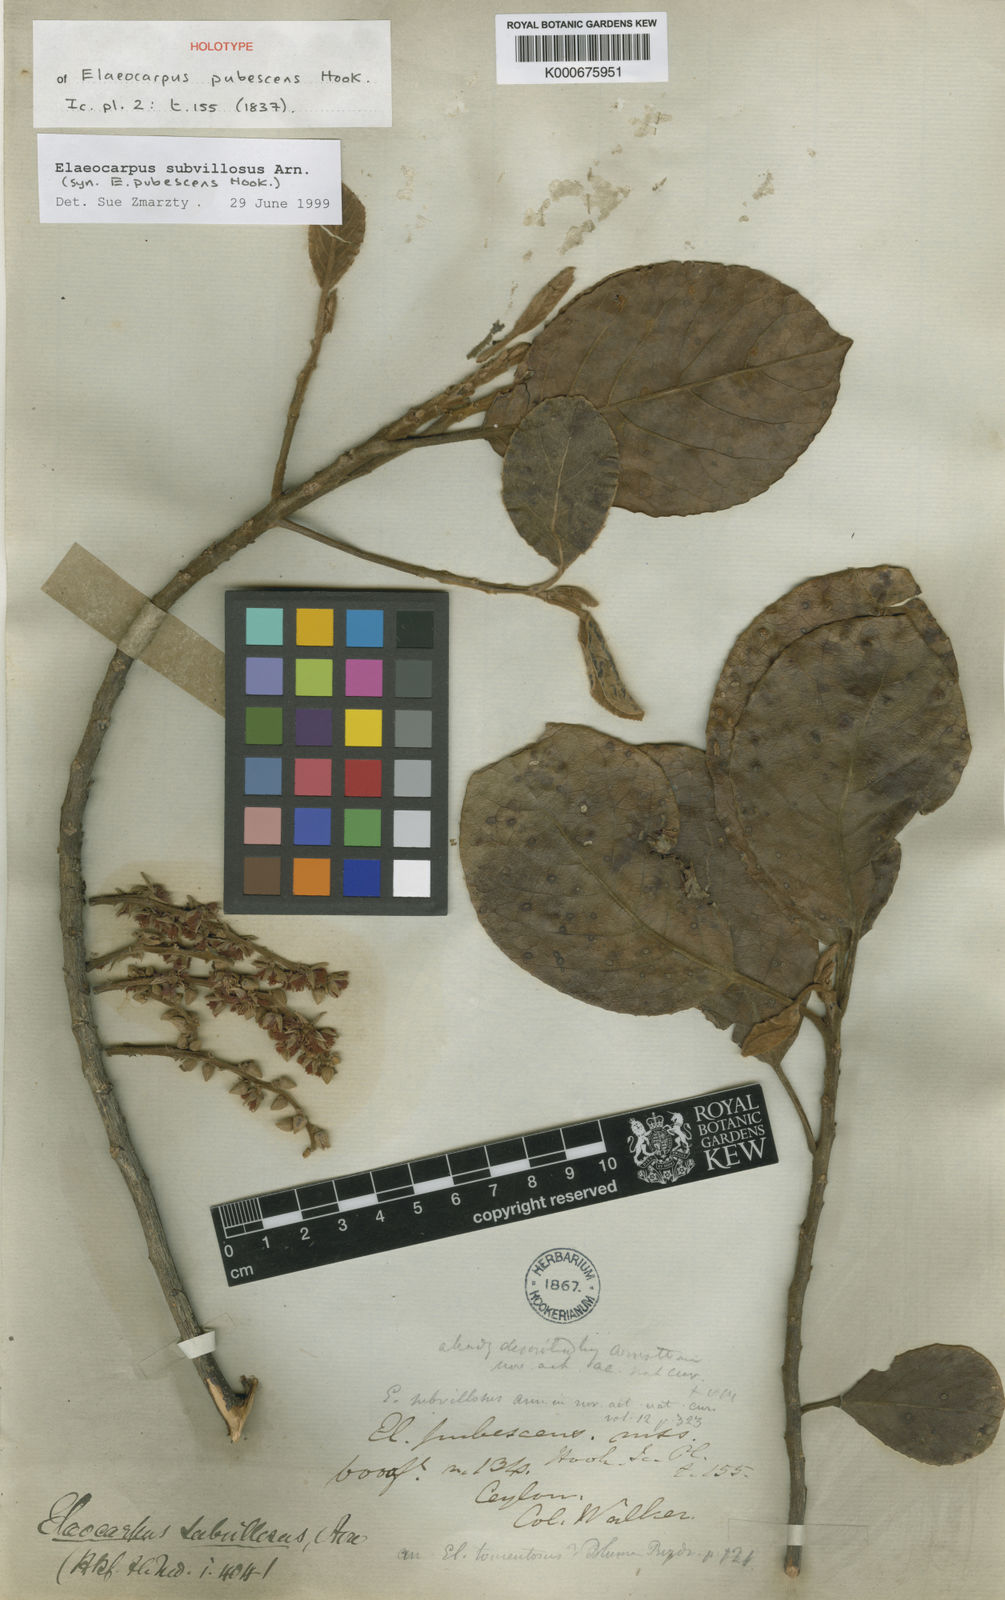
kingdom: Plantae
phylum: Tracheophyta
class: Magnoliopsida
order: Oxalidales
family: Elaeocarpaceae
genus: Elaeocarpus
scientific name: Elaeocarpus subvillosus
